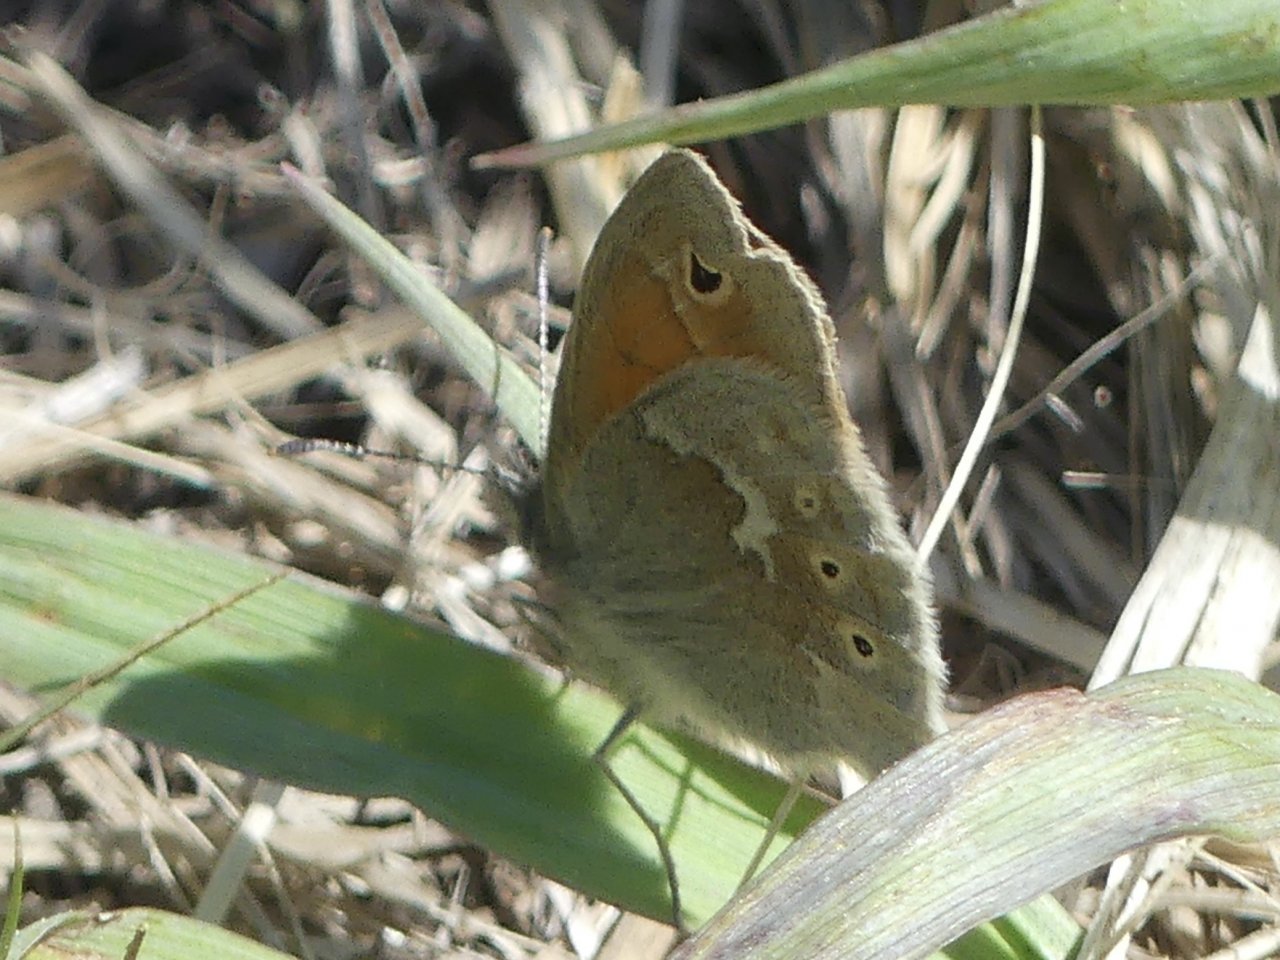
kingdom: Animalia
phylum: Arthropoda
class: Insecta
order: Lepidoptera
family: Nymphalidae
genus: Coenonympha
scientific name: Coenonympha tullia
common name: Large Heath
